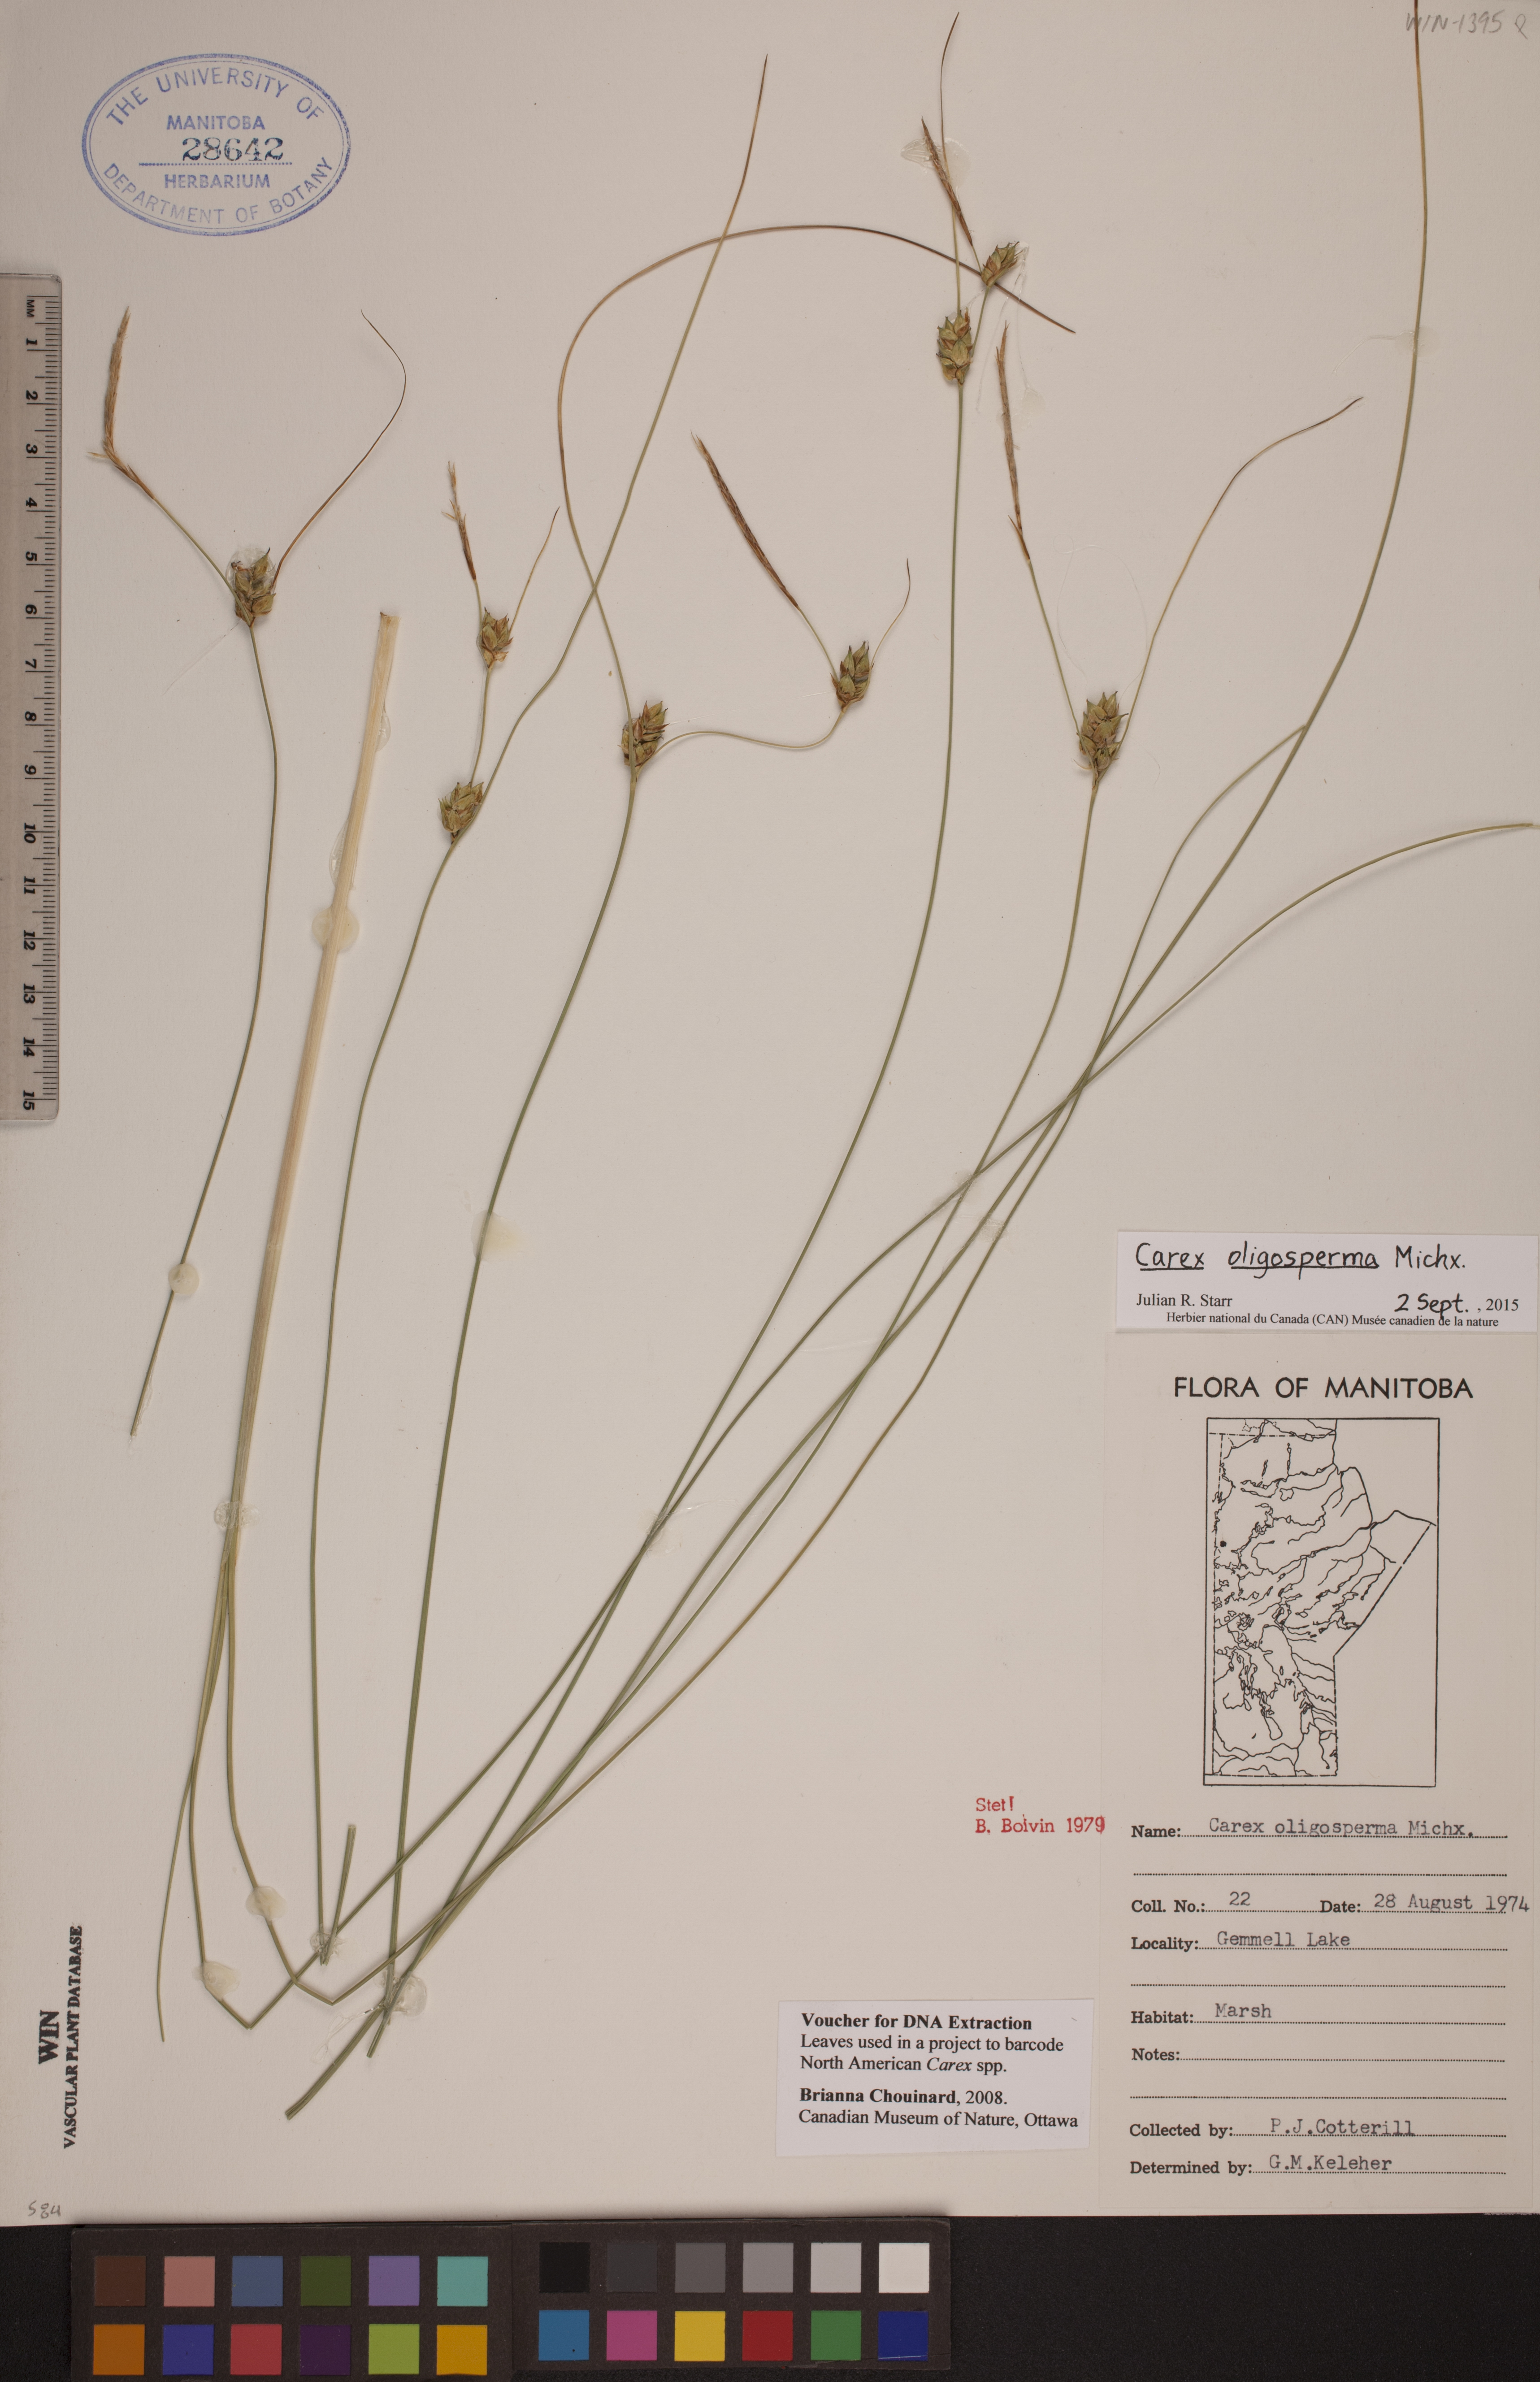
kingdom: Plantae
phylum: Tracheophyta
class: Liliopsida
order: Poales
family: Cyperaceae
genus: Carex
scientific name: Carex oligosperma
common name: Few-seed sedge
